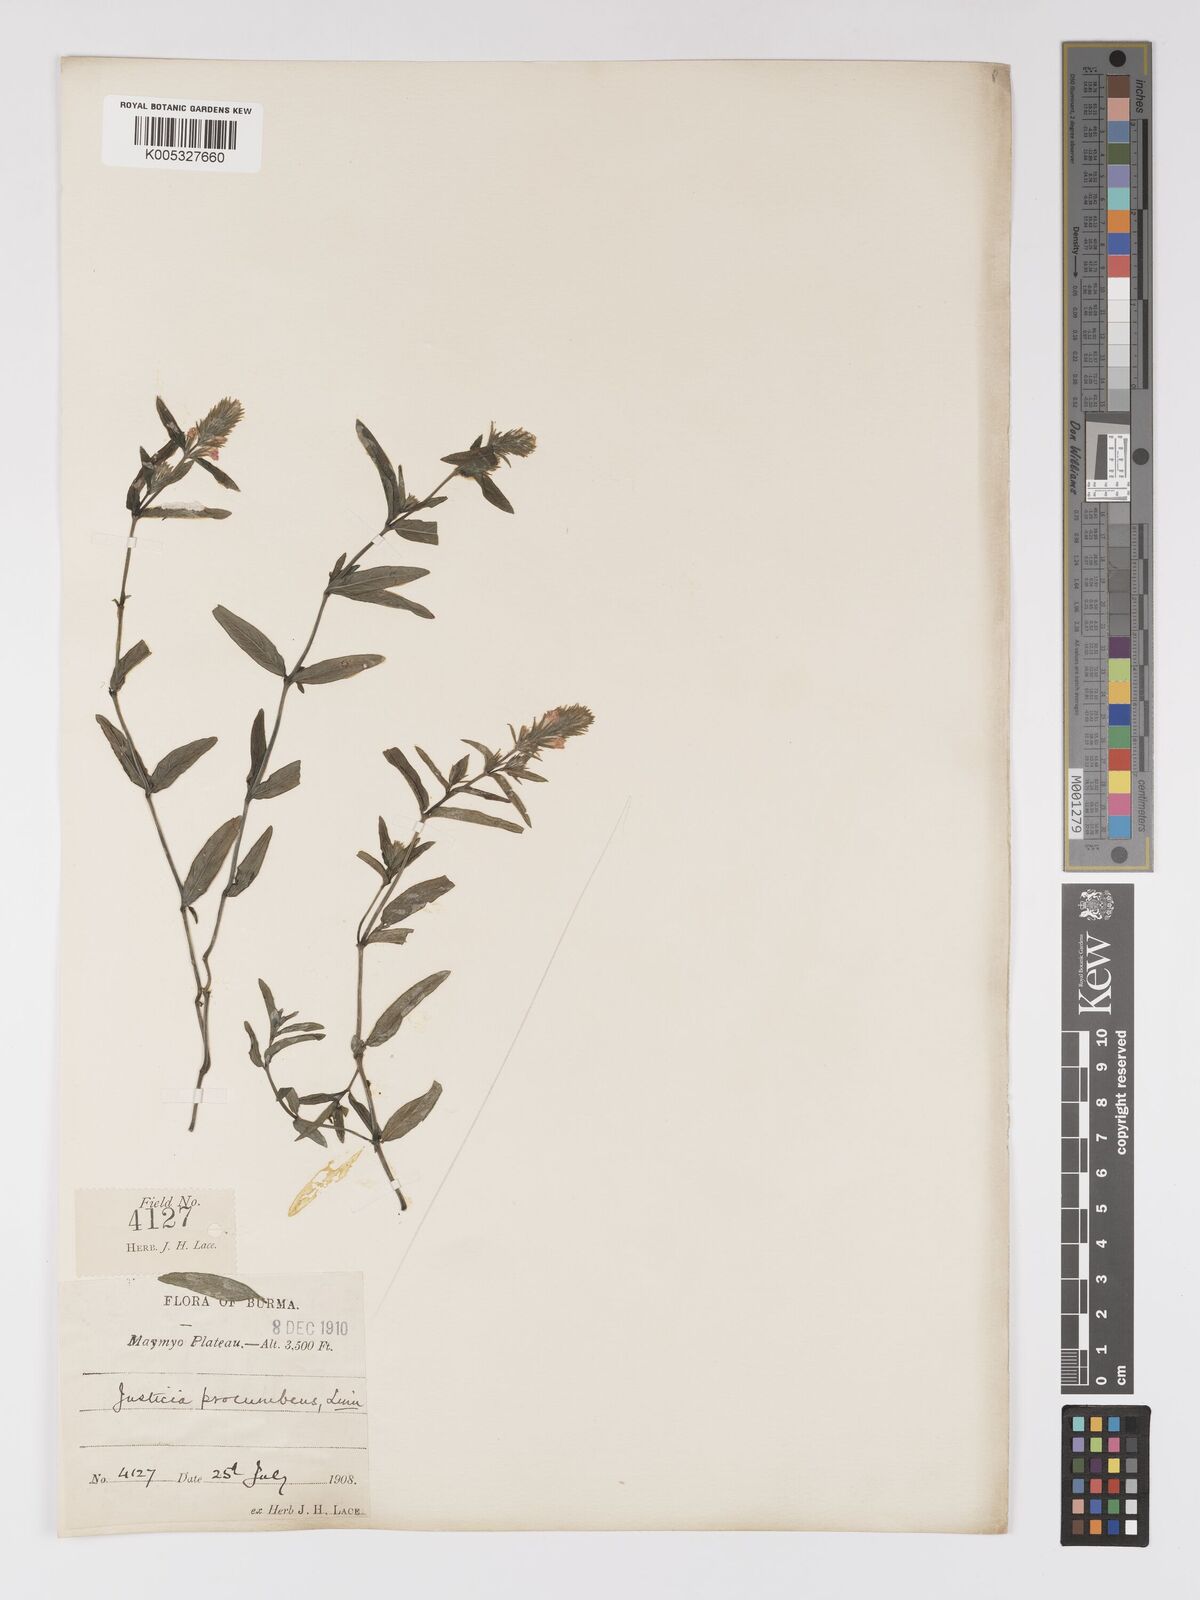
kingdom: Plantae
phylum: Tracheophyta
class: Magnoliopsida
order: Lamiales
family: Acanthaceae
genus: Rostellularia
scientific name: Rostellularia latispica
